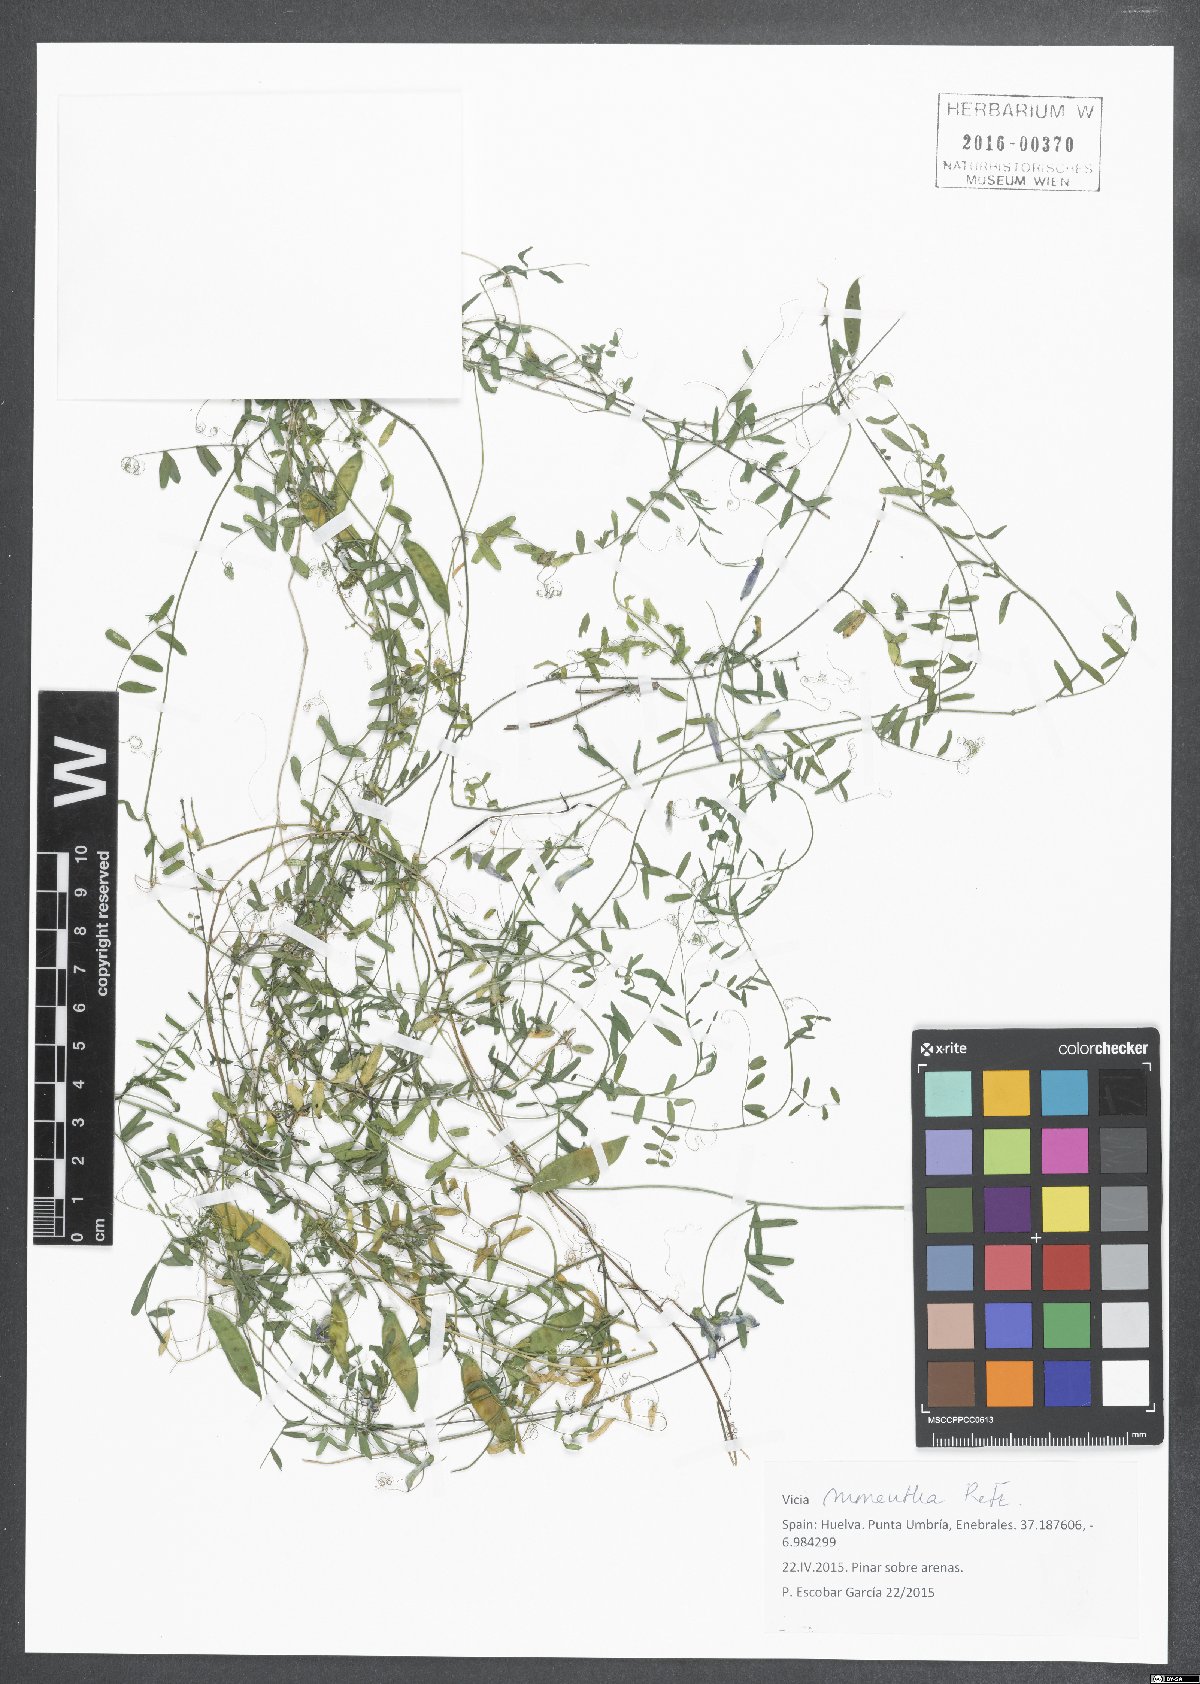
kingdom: Plantae
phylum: Tracheophyta
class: Magnoliopsida
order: Fabales
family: Fabaceae
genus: Vicia
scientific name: Vicia monantha
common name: Barn vetch
